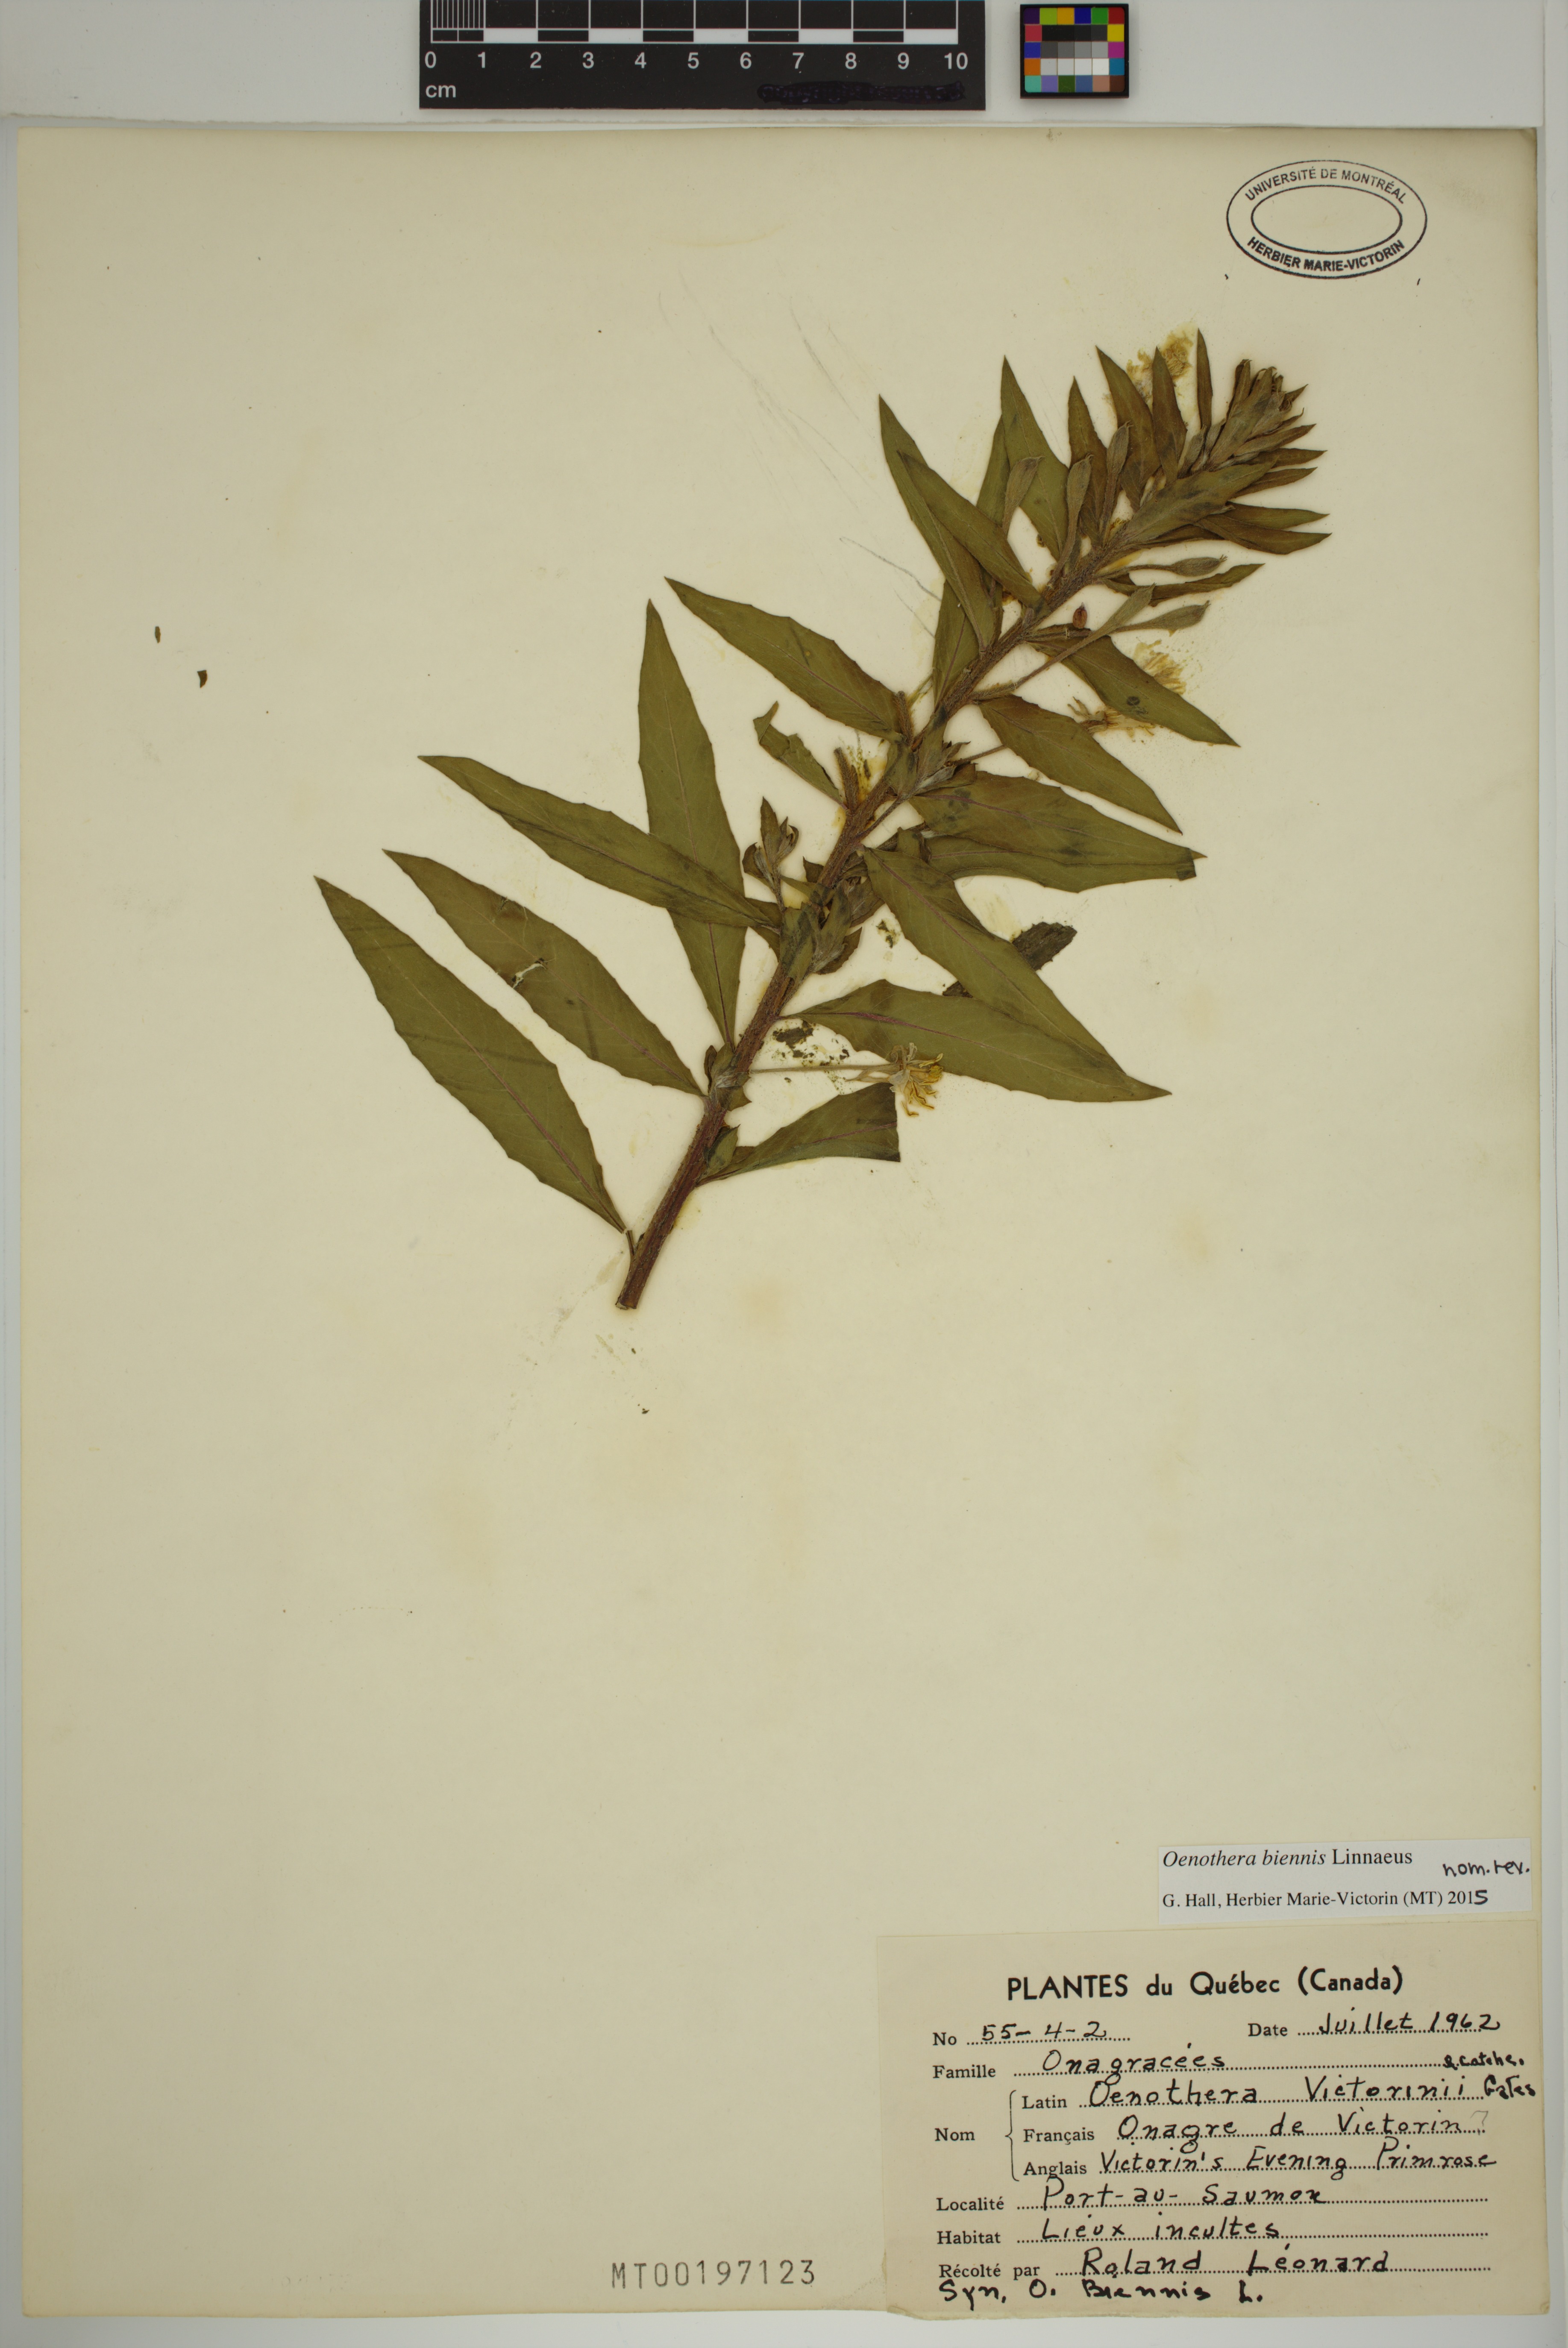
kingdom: Plantae
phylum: Tracheophyta
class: Magnoliopsida
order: Myrtales
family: Onagraceae
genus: Oenothera
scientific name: Oenothera biennis
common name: Common evening-primrose
